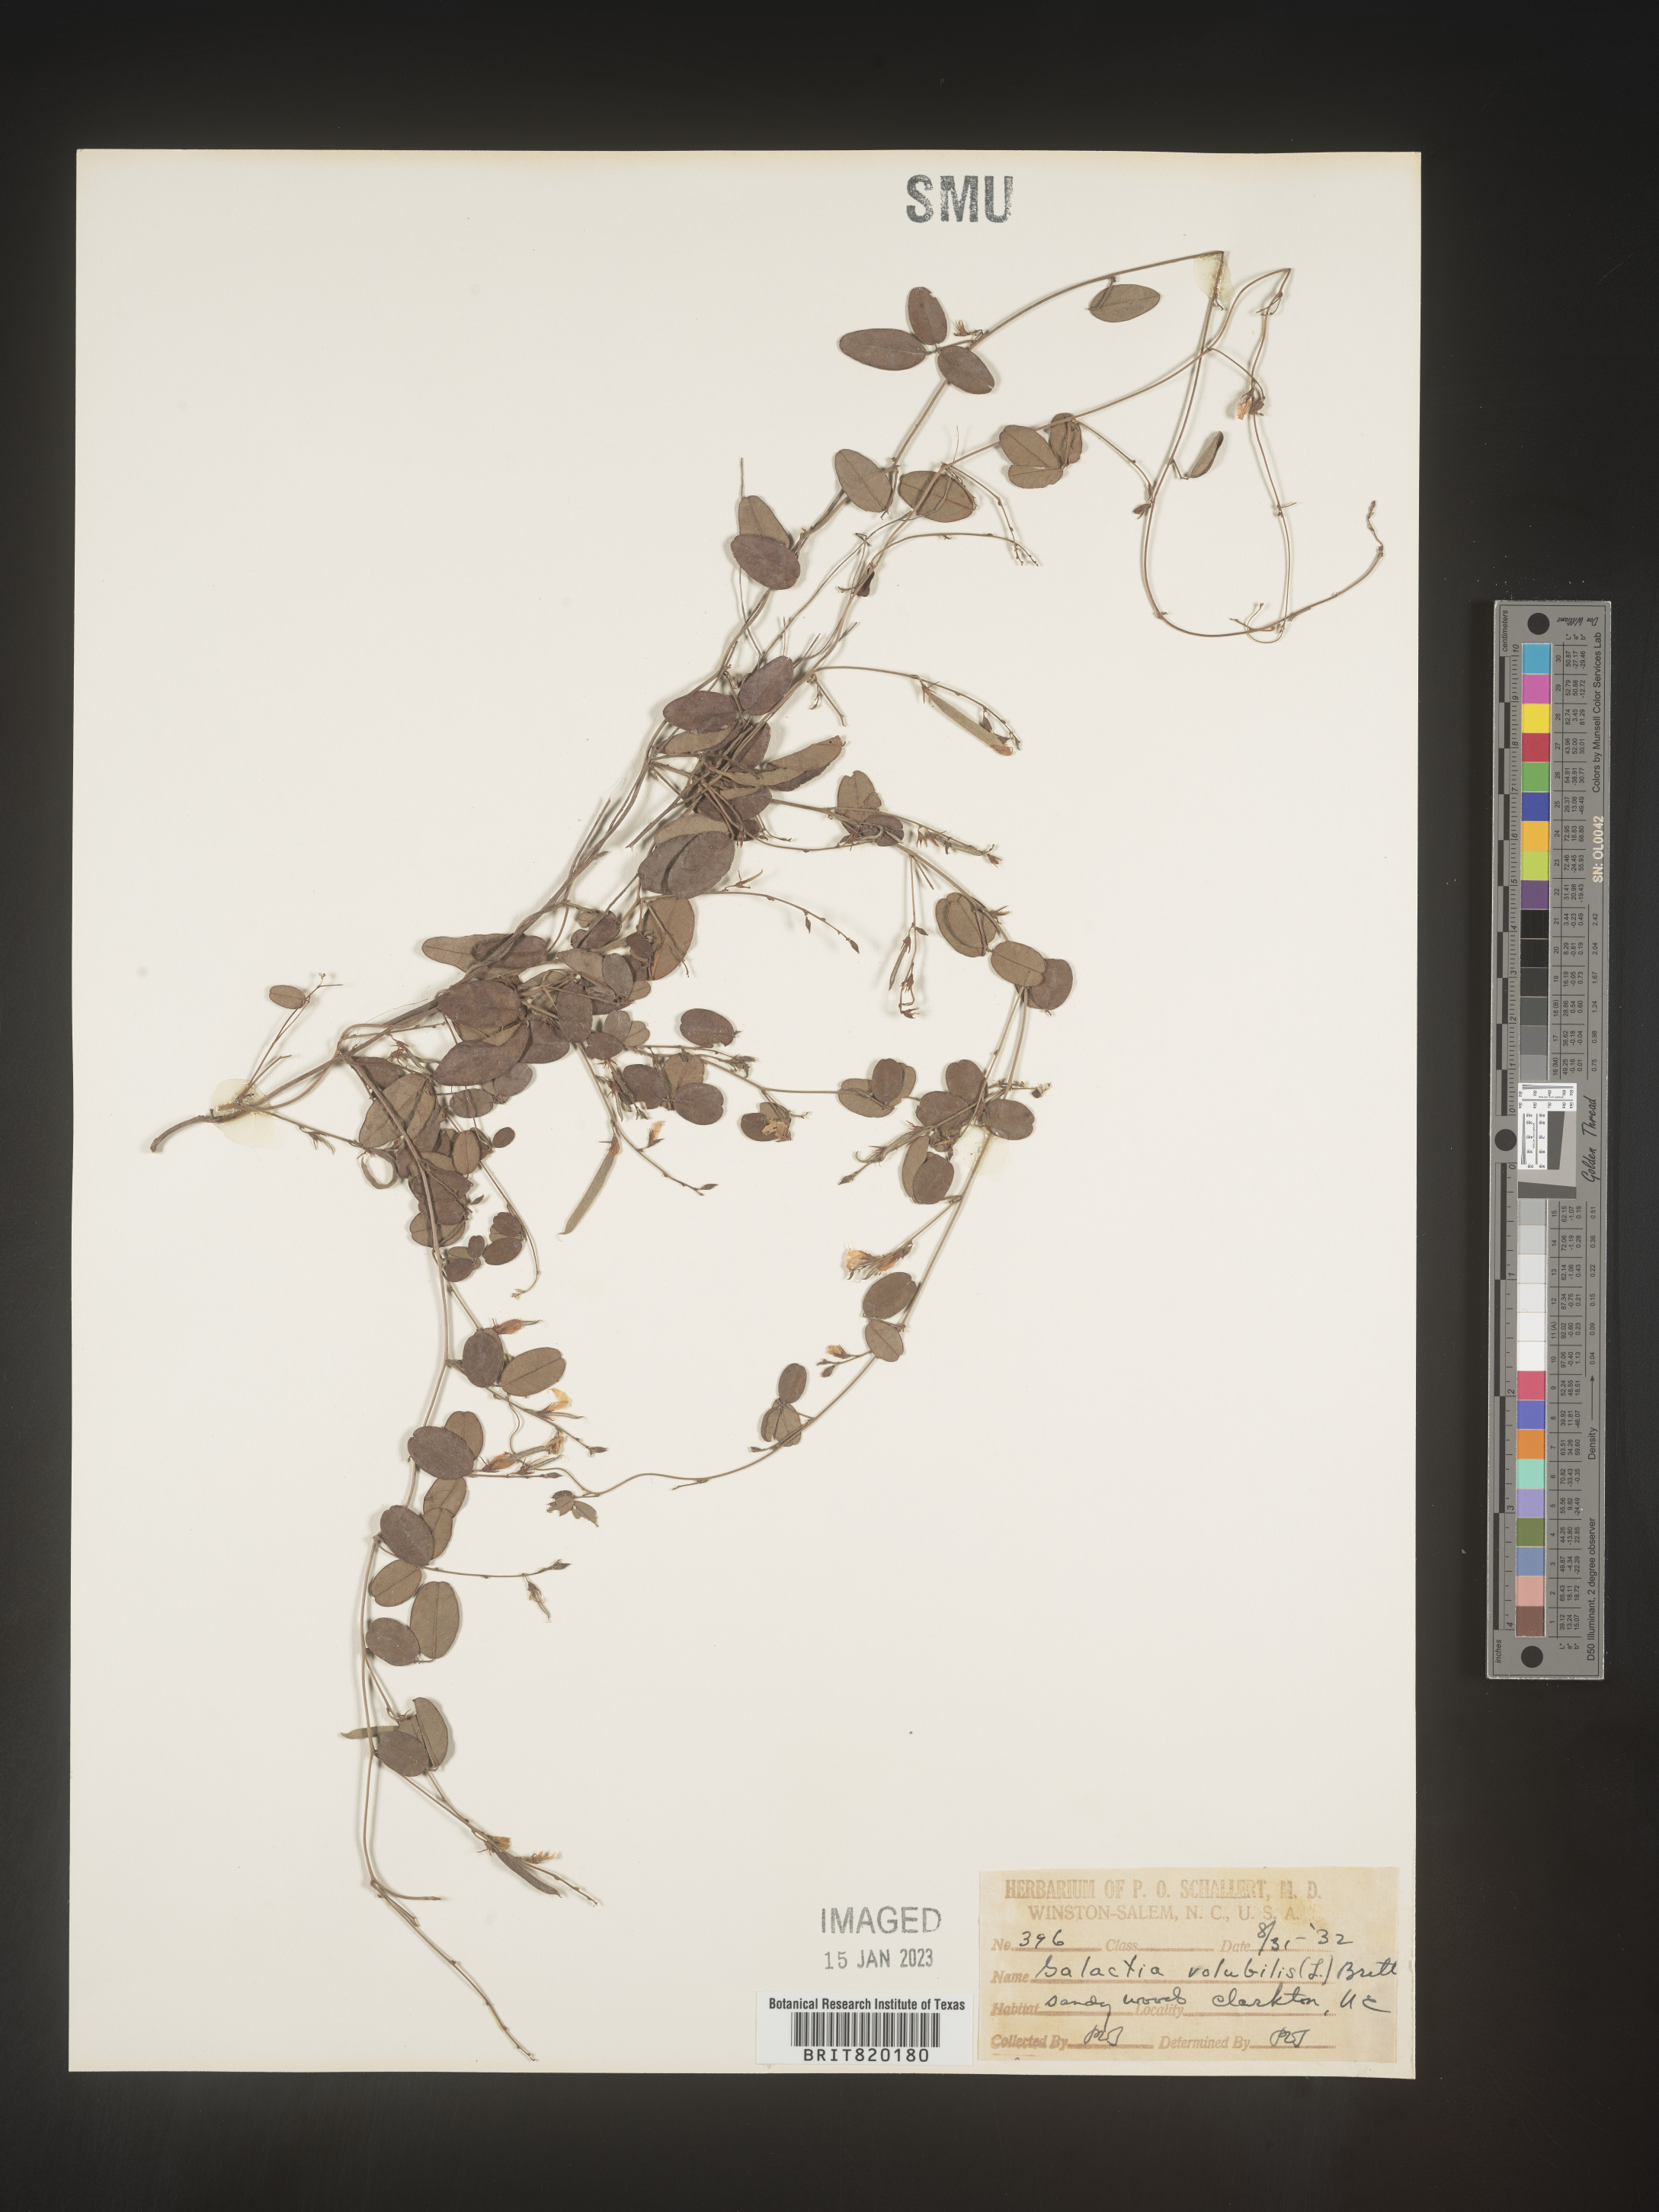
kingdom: Plantae
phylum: Tracheophyta
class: Magnoliopsida
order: Fabales
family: Fabaceae
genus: Galactia
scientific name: Galactia volubilis
